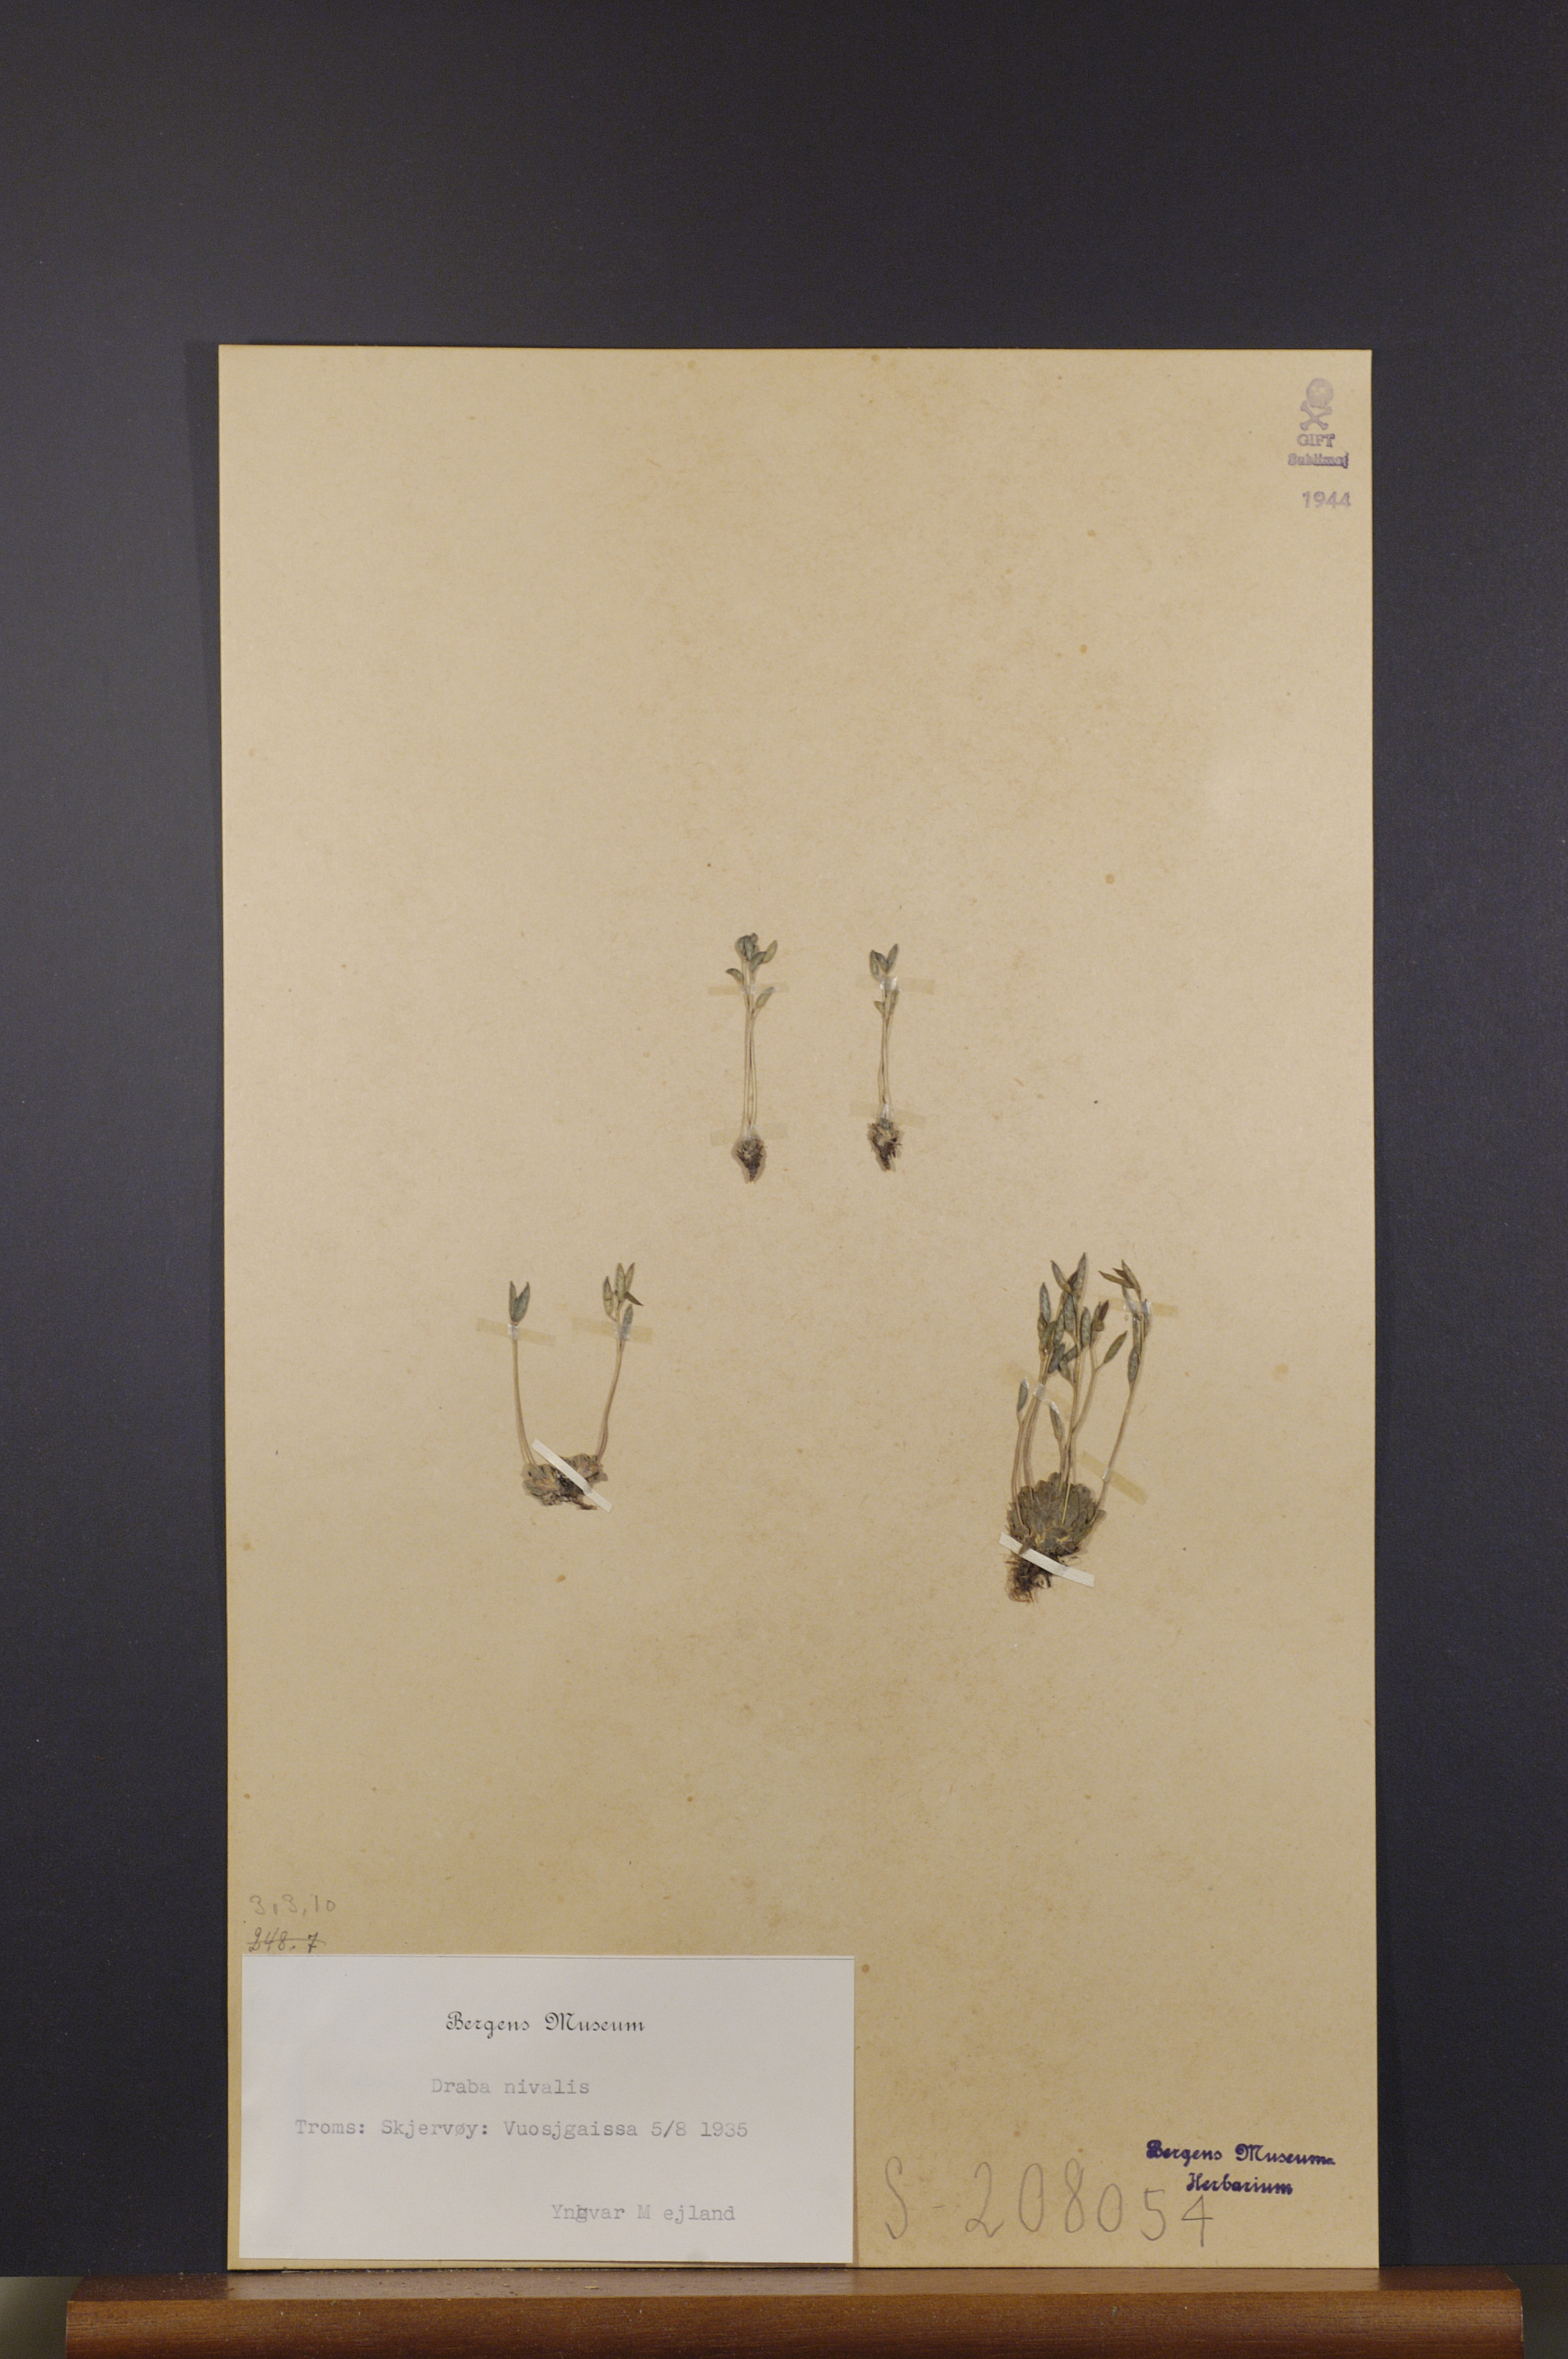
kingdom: Plantae
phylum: Tracheophyta
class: Magnoliopsida
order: Brassicales
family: Brassicaceae
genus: Draba
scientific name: Draba nivalis
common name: Snow draba
